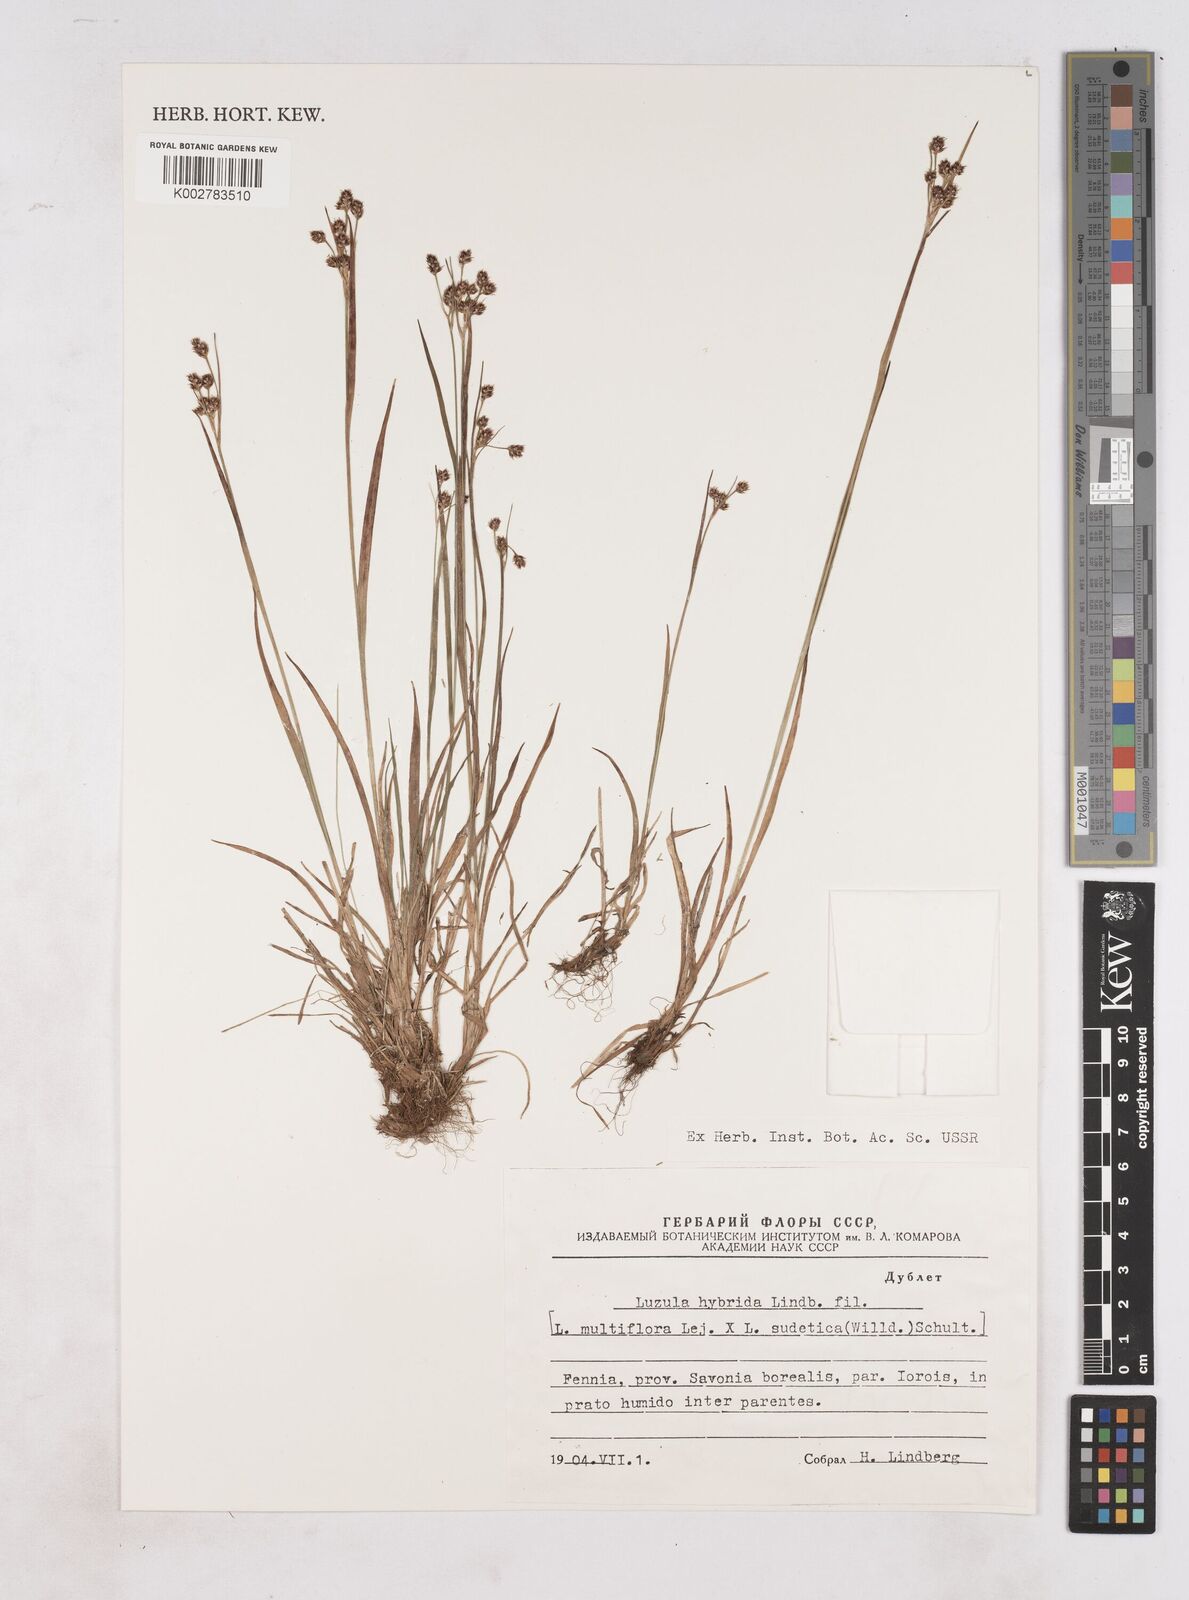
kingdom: Plantae
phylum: Tracheophyta
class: Liliopsida
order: Poales
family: Juncaceae
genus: Luzula
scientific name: Luzula hybrida
